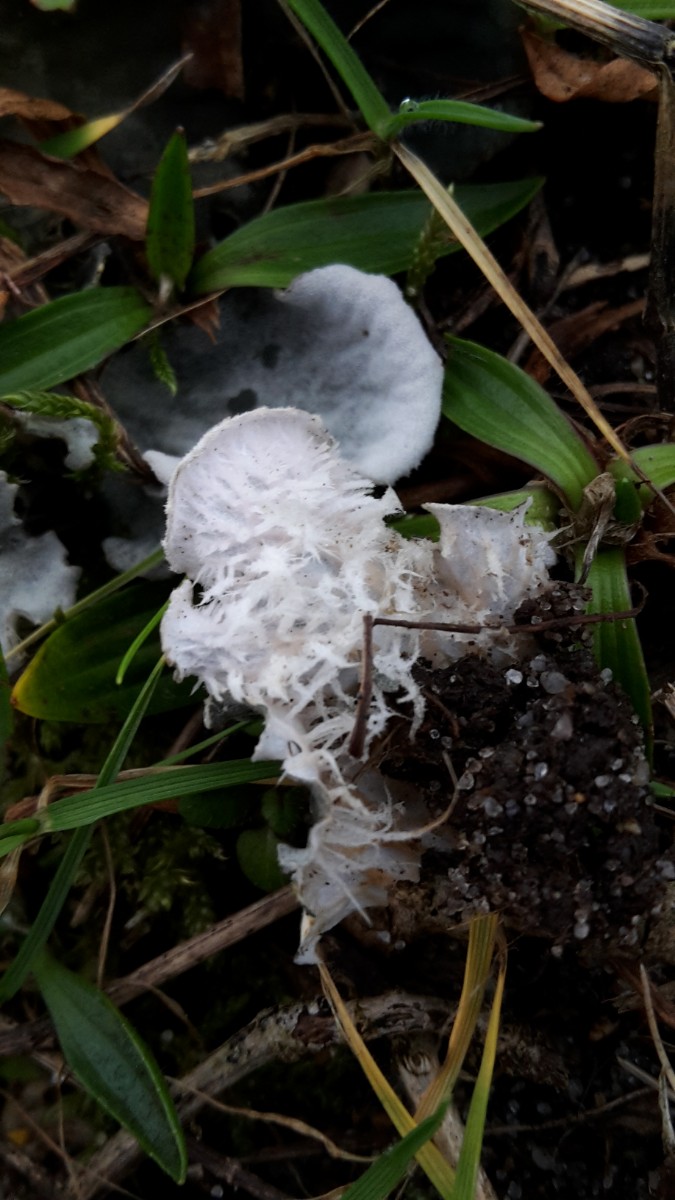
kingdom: Fungi
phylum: Ascomycota
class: Lecanoromycetes
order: Peltigerales
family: Peltigeraceae
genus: Peltigera
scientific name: Peltigera canina
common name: hunde-skjoldlav
